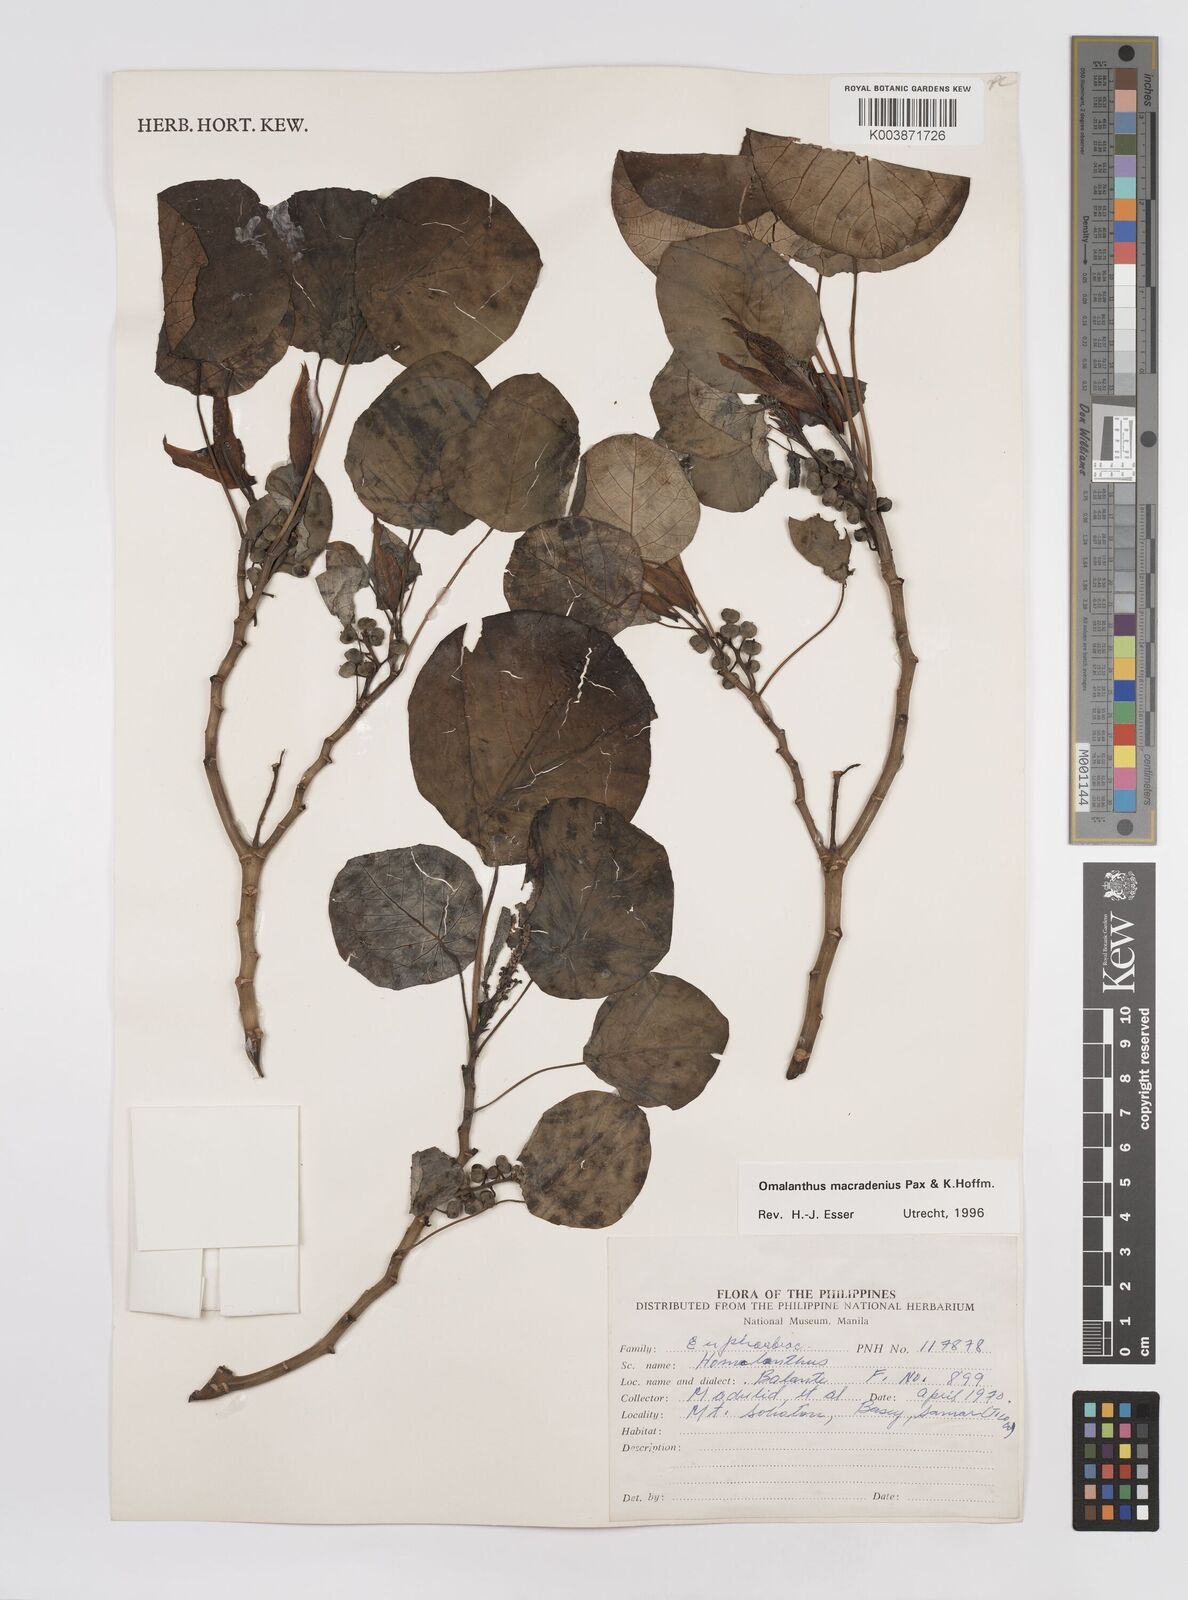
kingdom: Plantae
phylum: Tracheophyta
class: Magnoliopsida
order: Malpighiales
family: Euphorbiaceae
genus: Homalanthus
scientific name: Homalanthus macradenius
